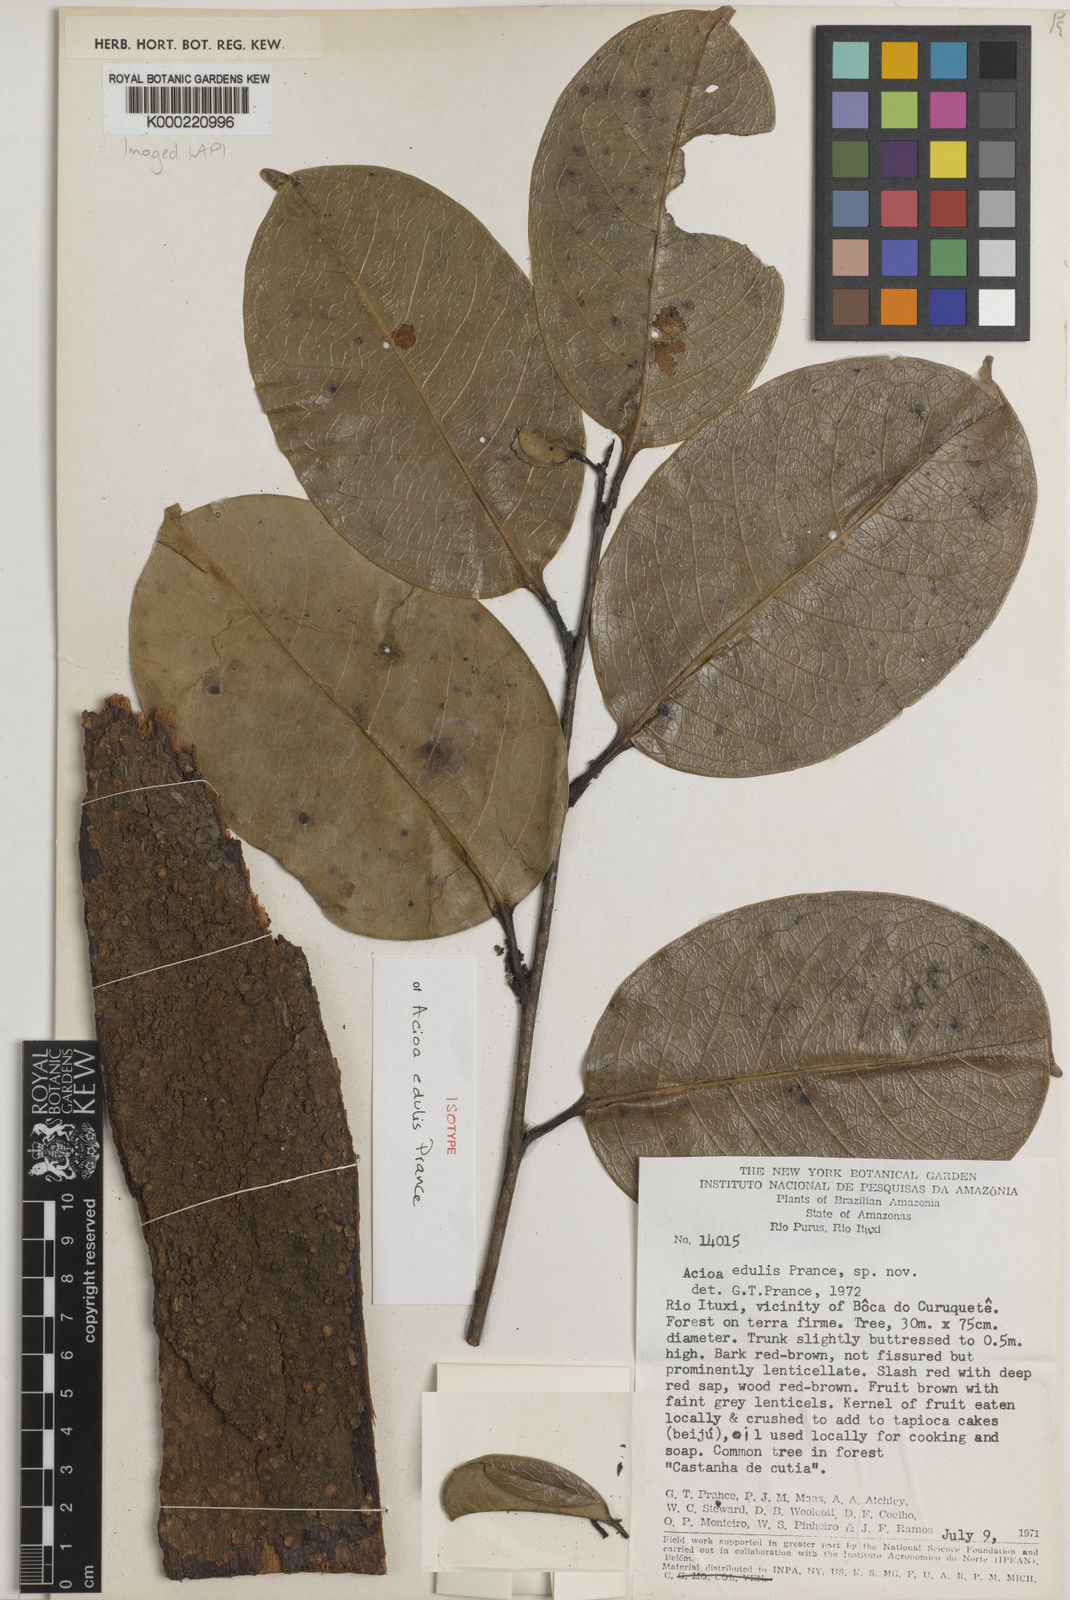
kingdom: Plantae
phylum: Tracheophyta
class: Magnoliopsida
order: Malpighiales
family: Chrysobalanaceae
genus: Acioa
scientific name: Acioa edulis
